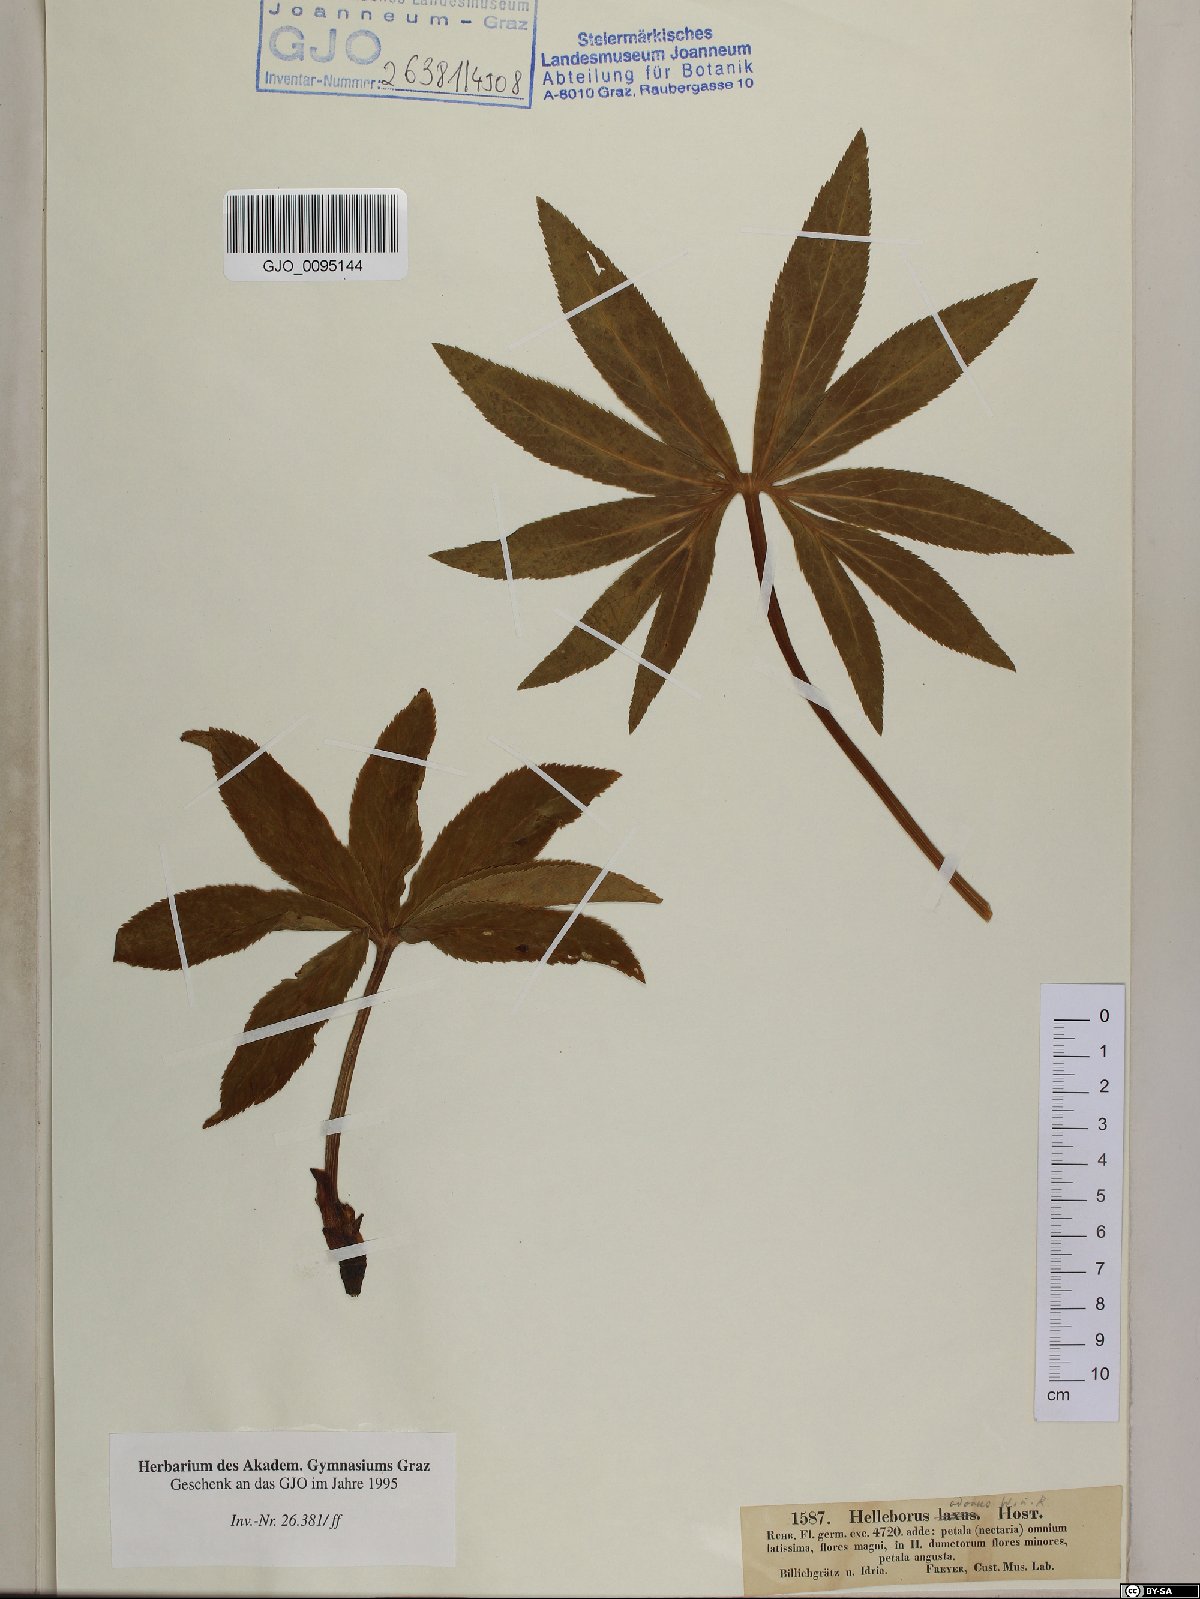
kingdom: Plantae
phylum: Tracheophyta
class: Magnoliopsida
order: Ranunculales
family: Ranunculaceae
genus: Helleborus
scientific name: Helleborus multifidus
